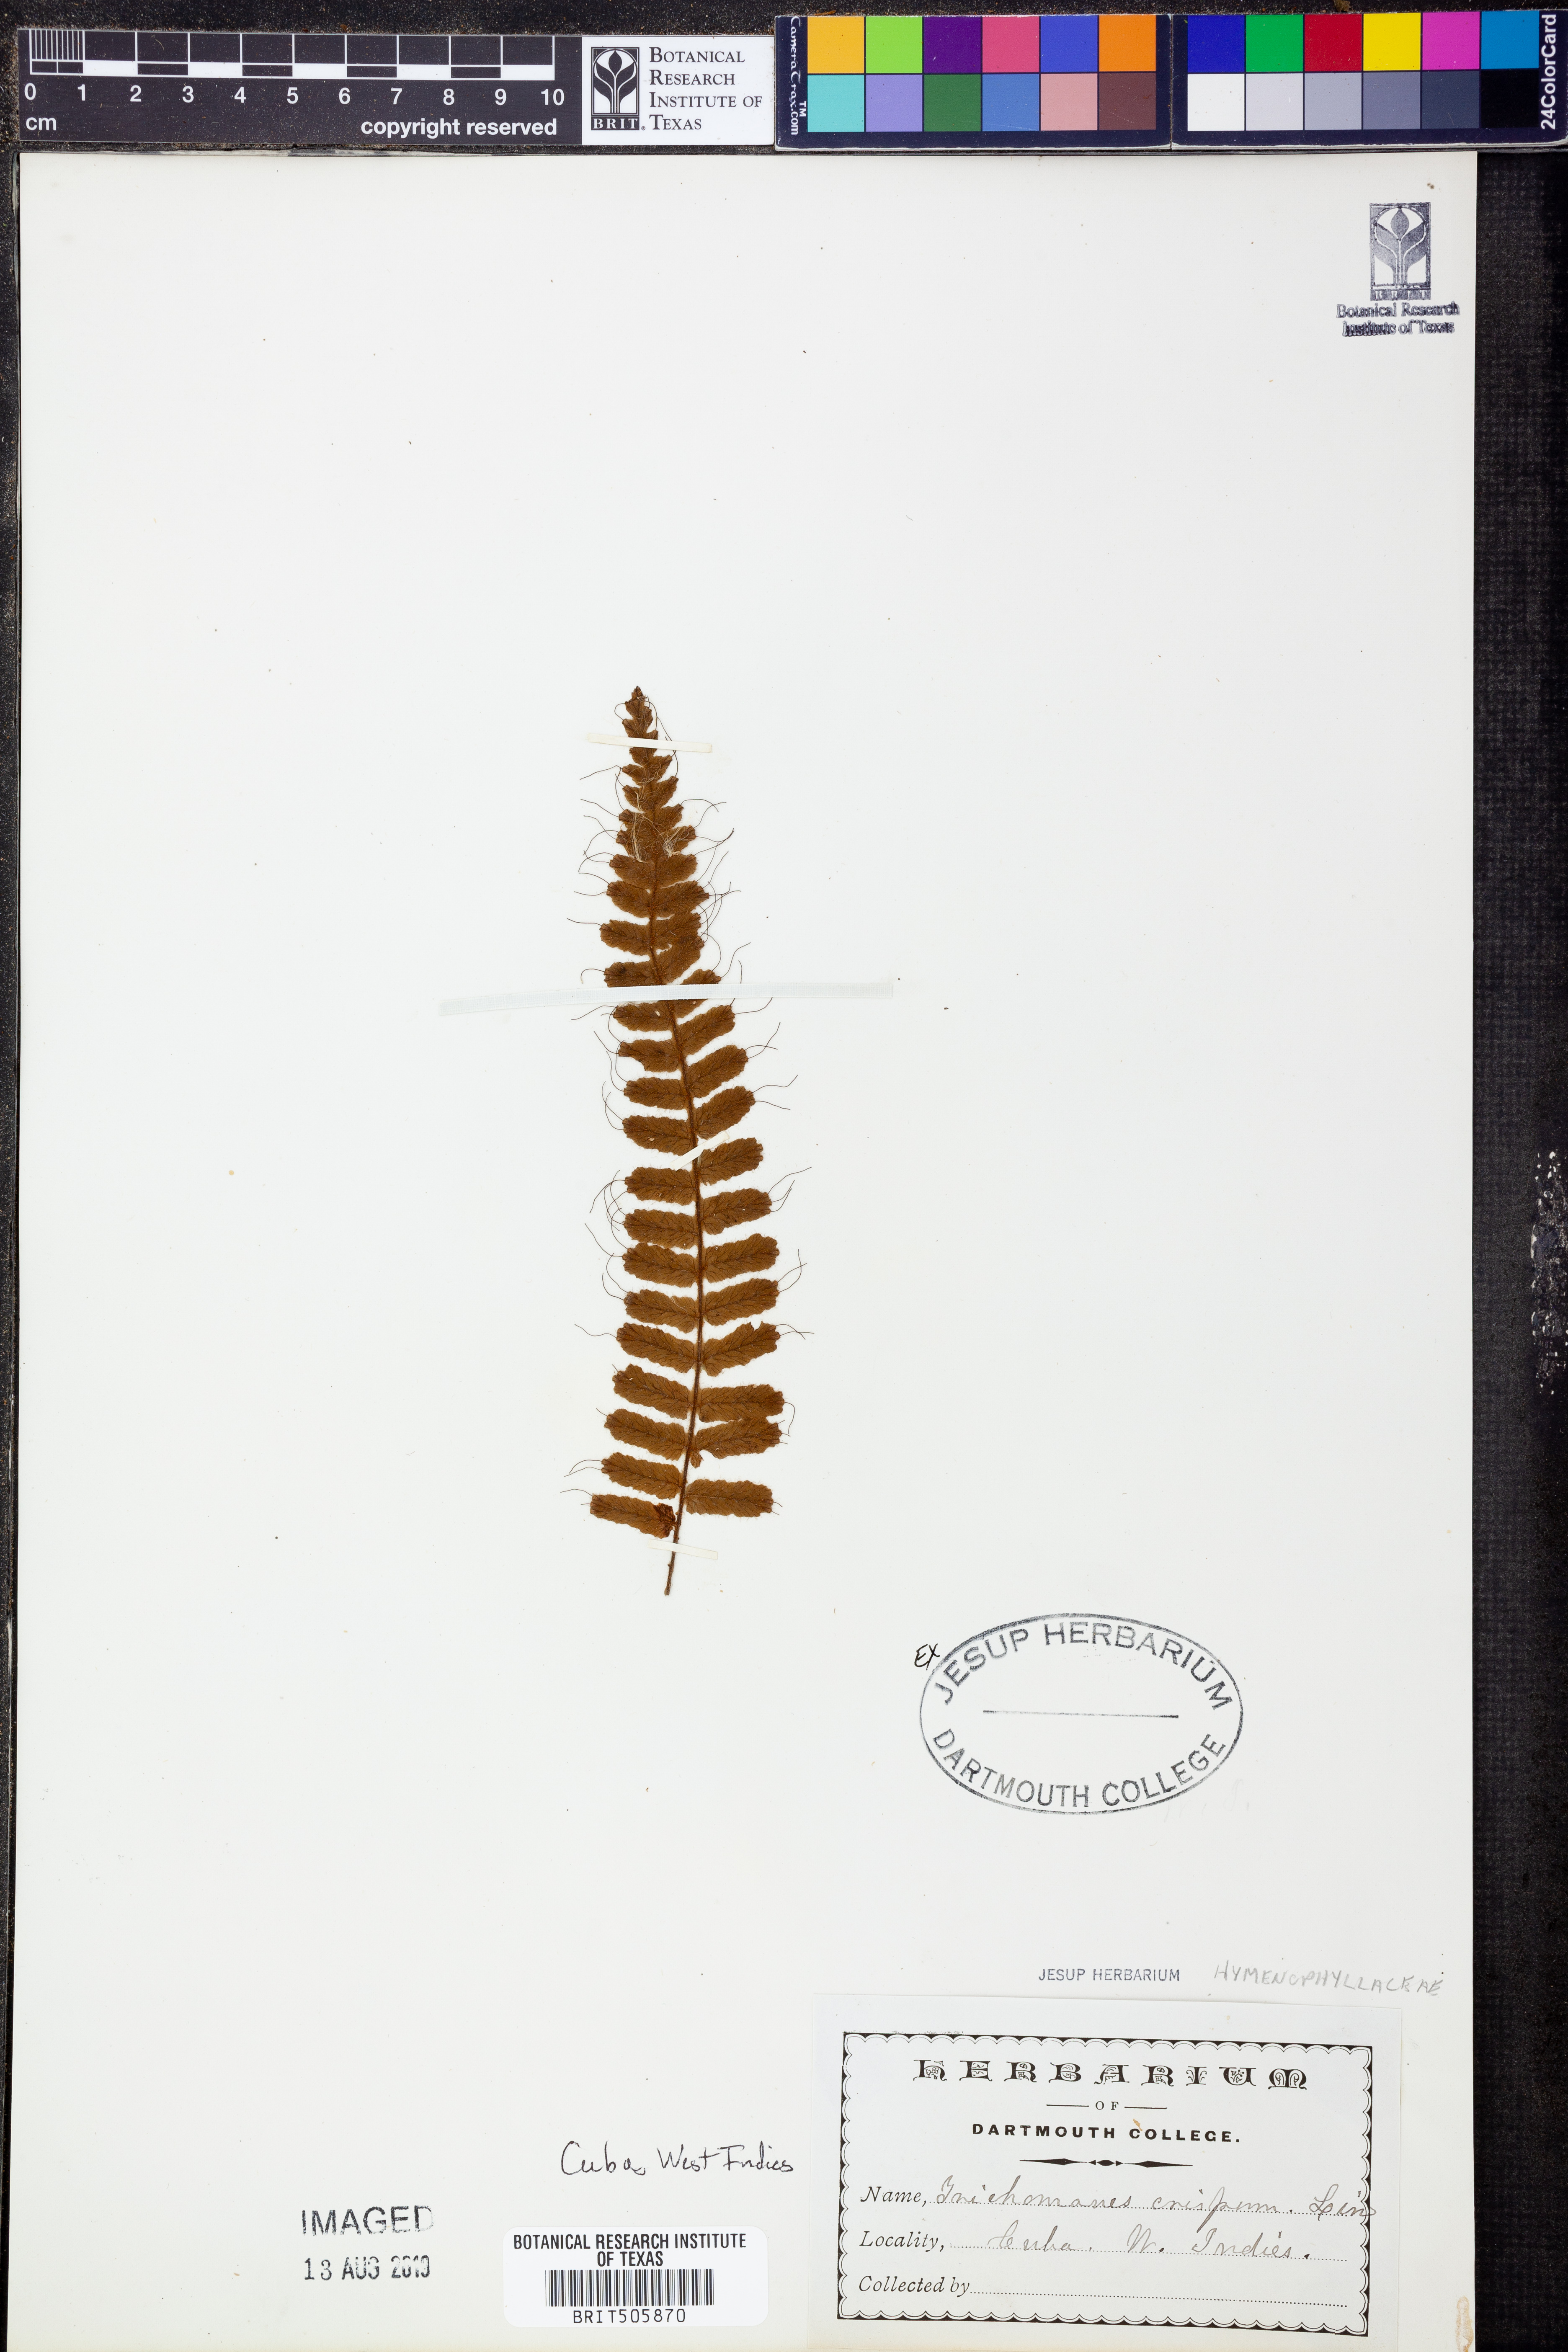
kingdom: Plantae
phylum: Tracheophyta
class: Polypodiopsida
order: Hymenophyllales
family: Hymenophyllaceae
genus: Trichomanes
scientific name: Trichomanes crispum
